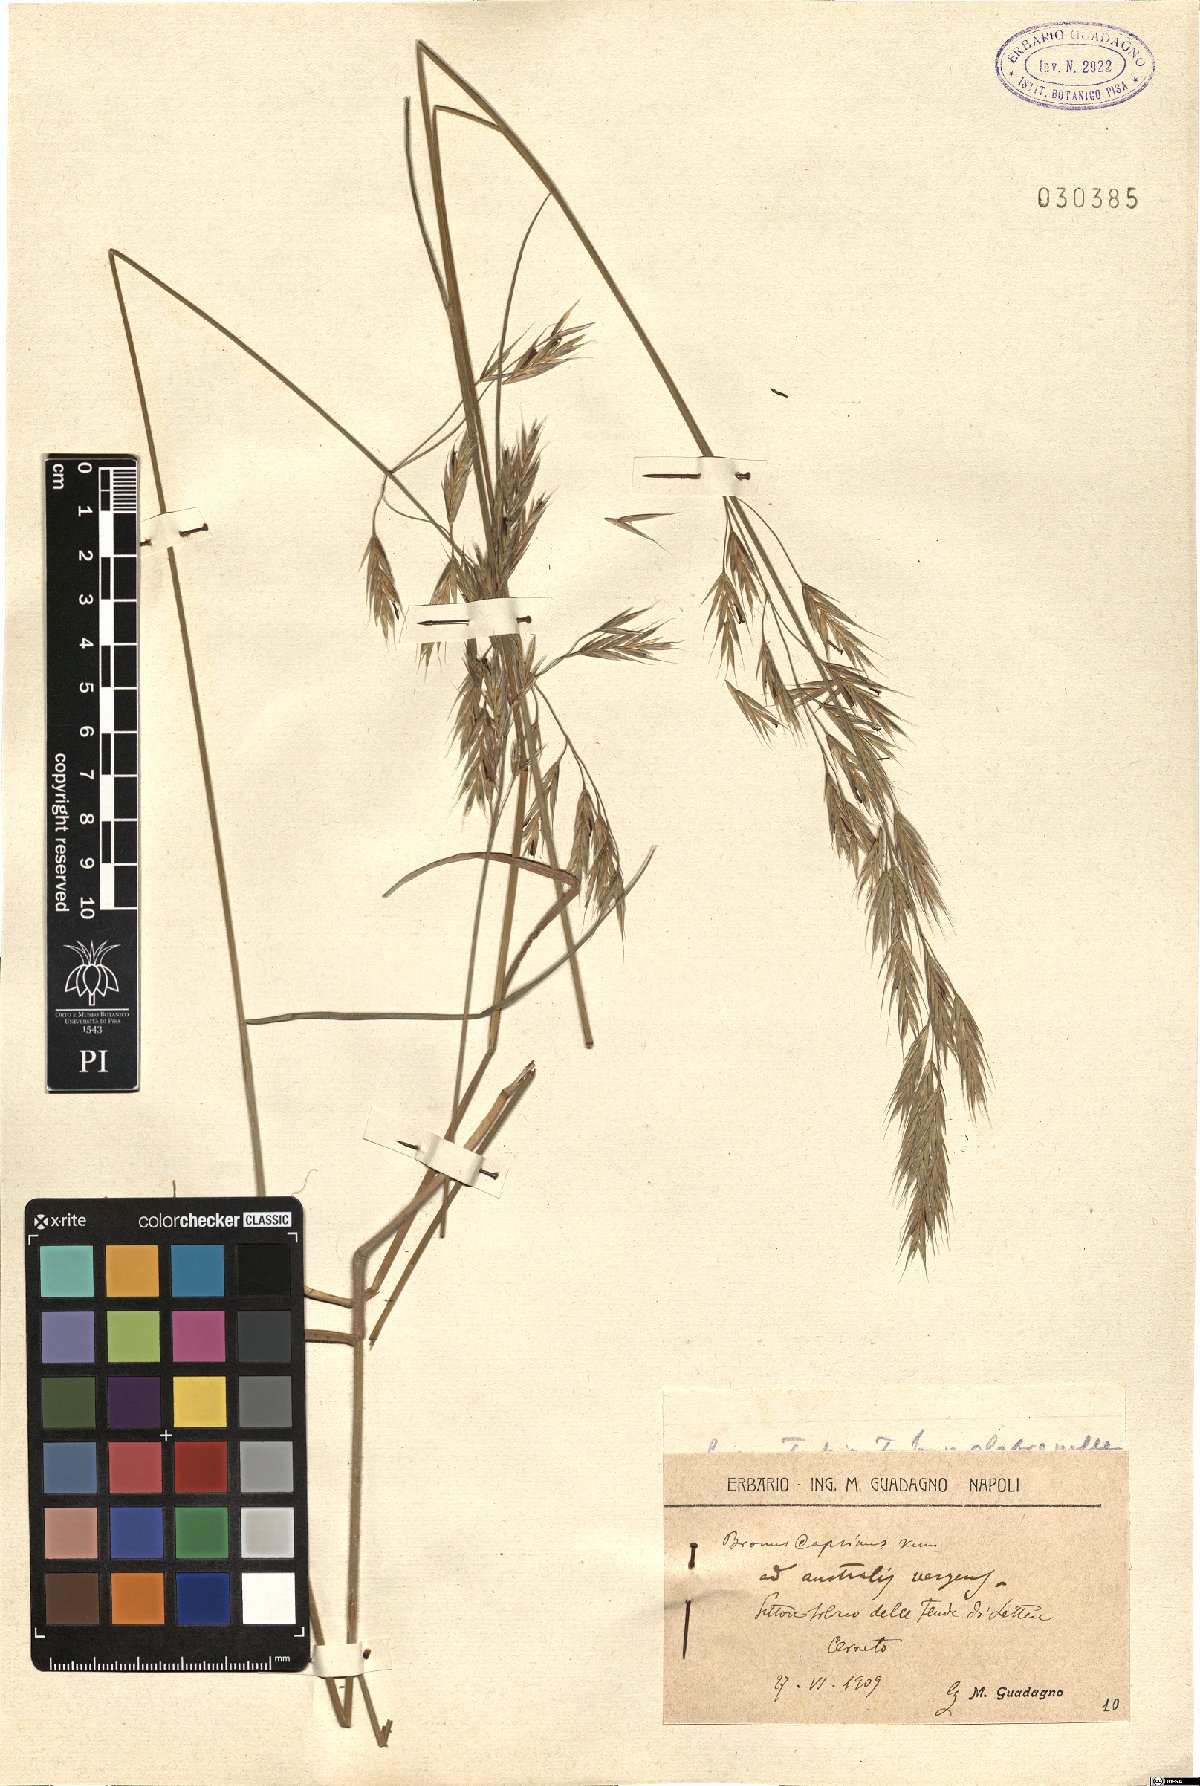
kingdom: Plantae
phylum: Tracheophyta
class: Liliopsida
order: Poales
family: Poaceae
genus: Bromus
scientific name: Bromus erectus
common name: Erect brome
